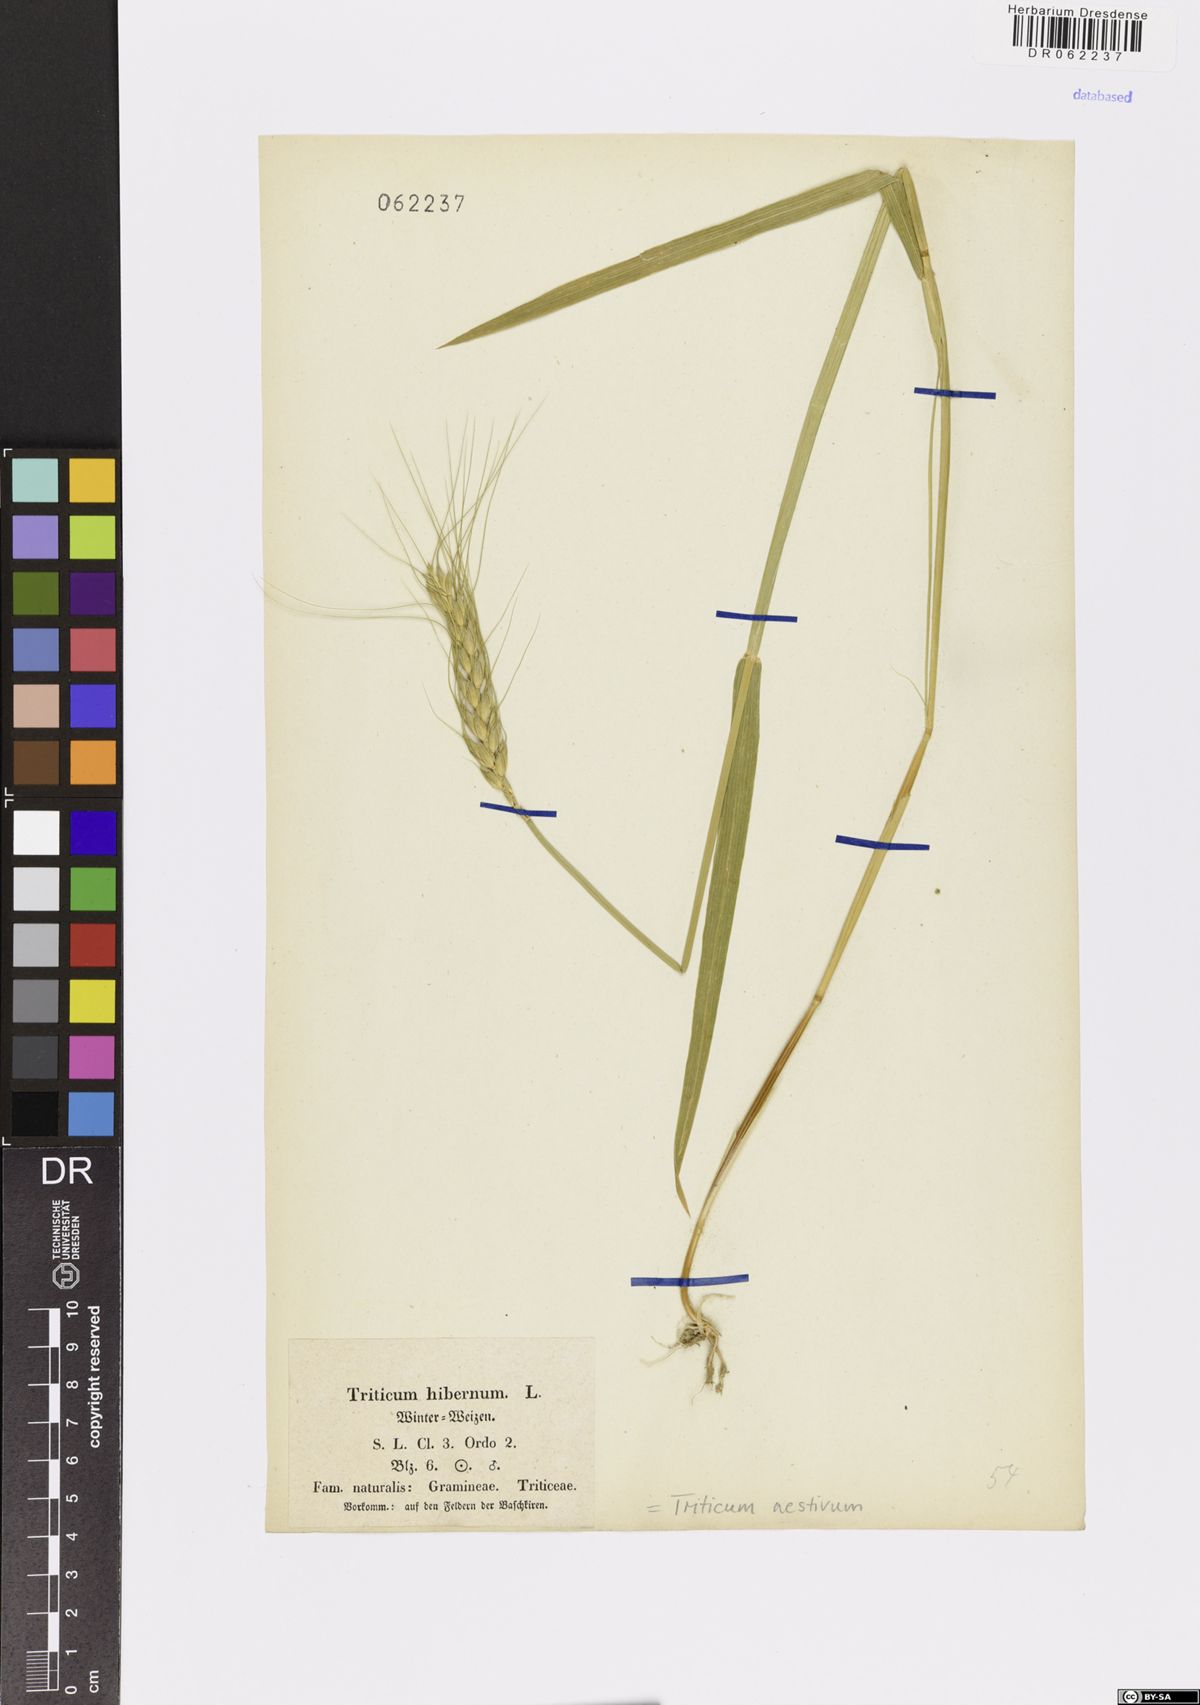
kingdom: Plantae
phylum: Tracheophyta
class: Liliopsida
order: Poales
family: Poaceae
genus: Triticum
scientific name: Triticum aestivum
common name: Common wheat
